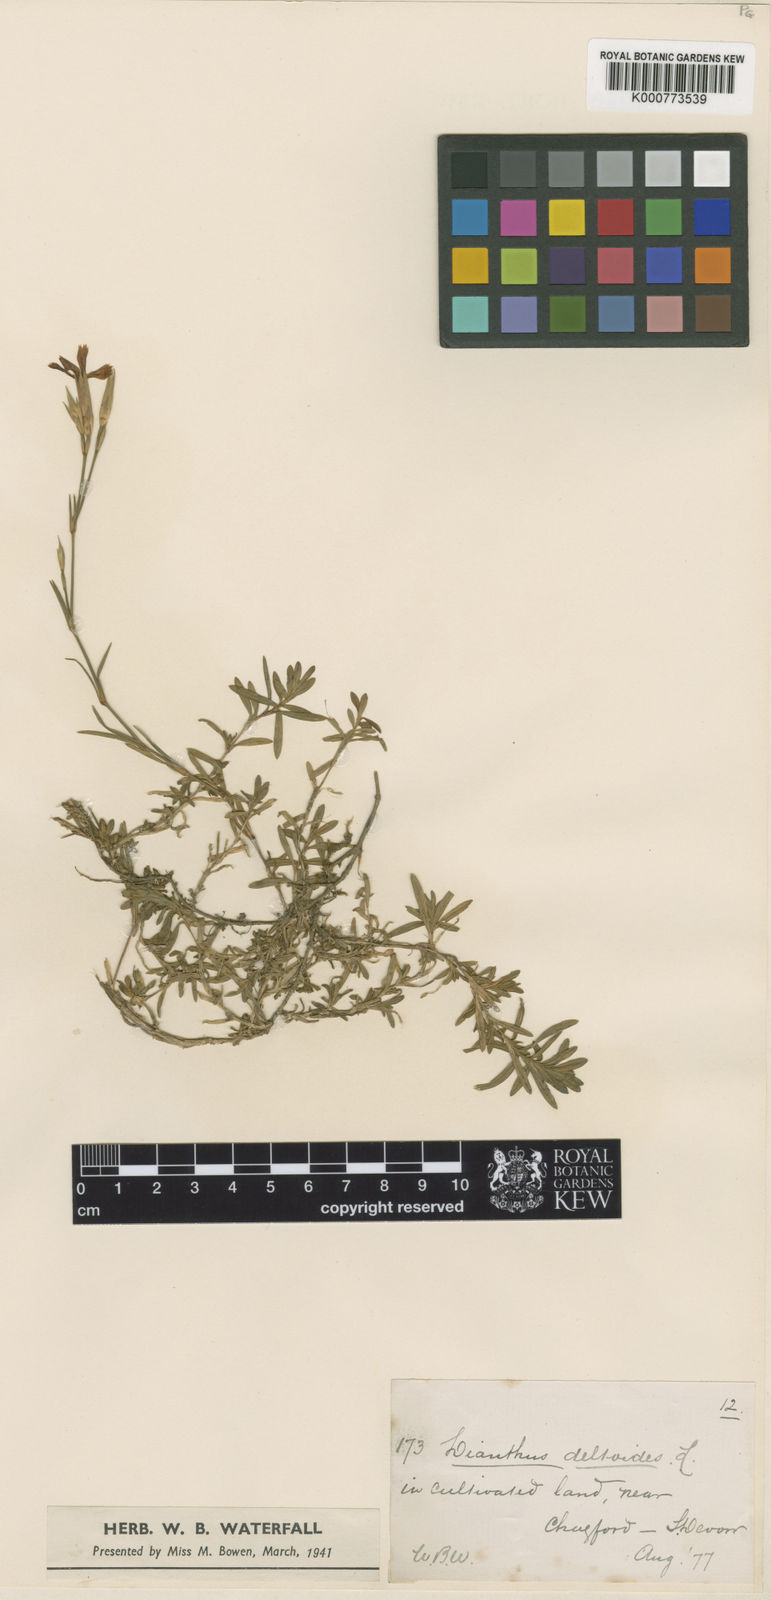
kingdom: Plantae
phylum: Tracheophyta
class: Magnoliopsida
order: Caryophyllales
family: Caryophyllaceae
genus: Dianthus
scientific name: Dianthus deltoides
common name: Maiden pink
